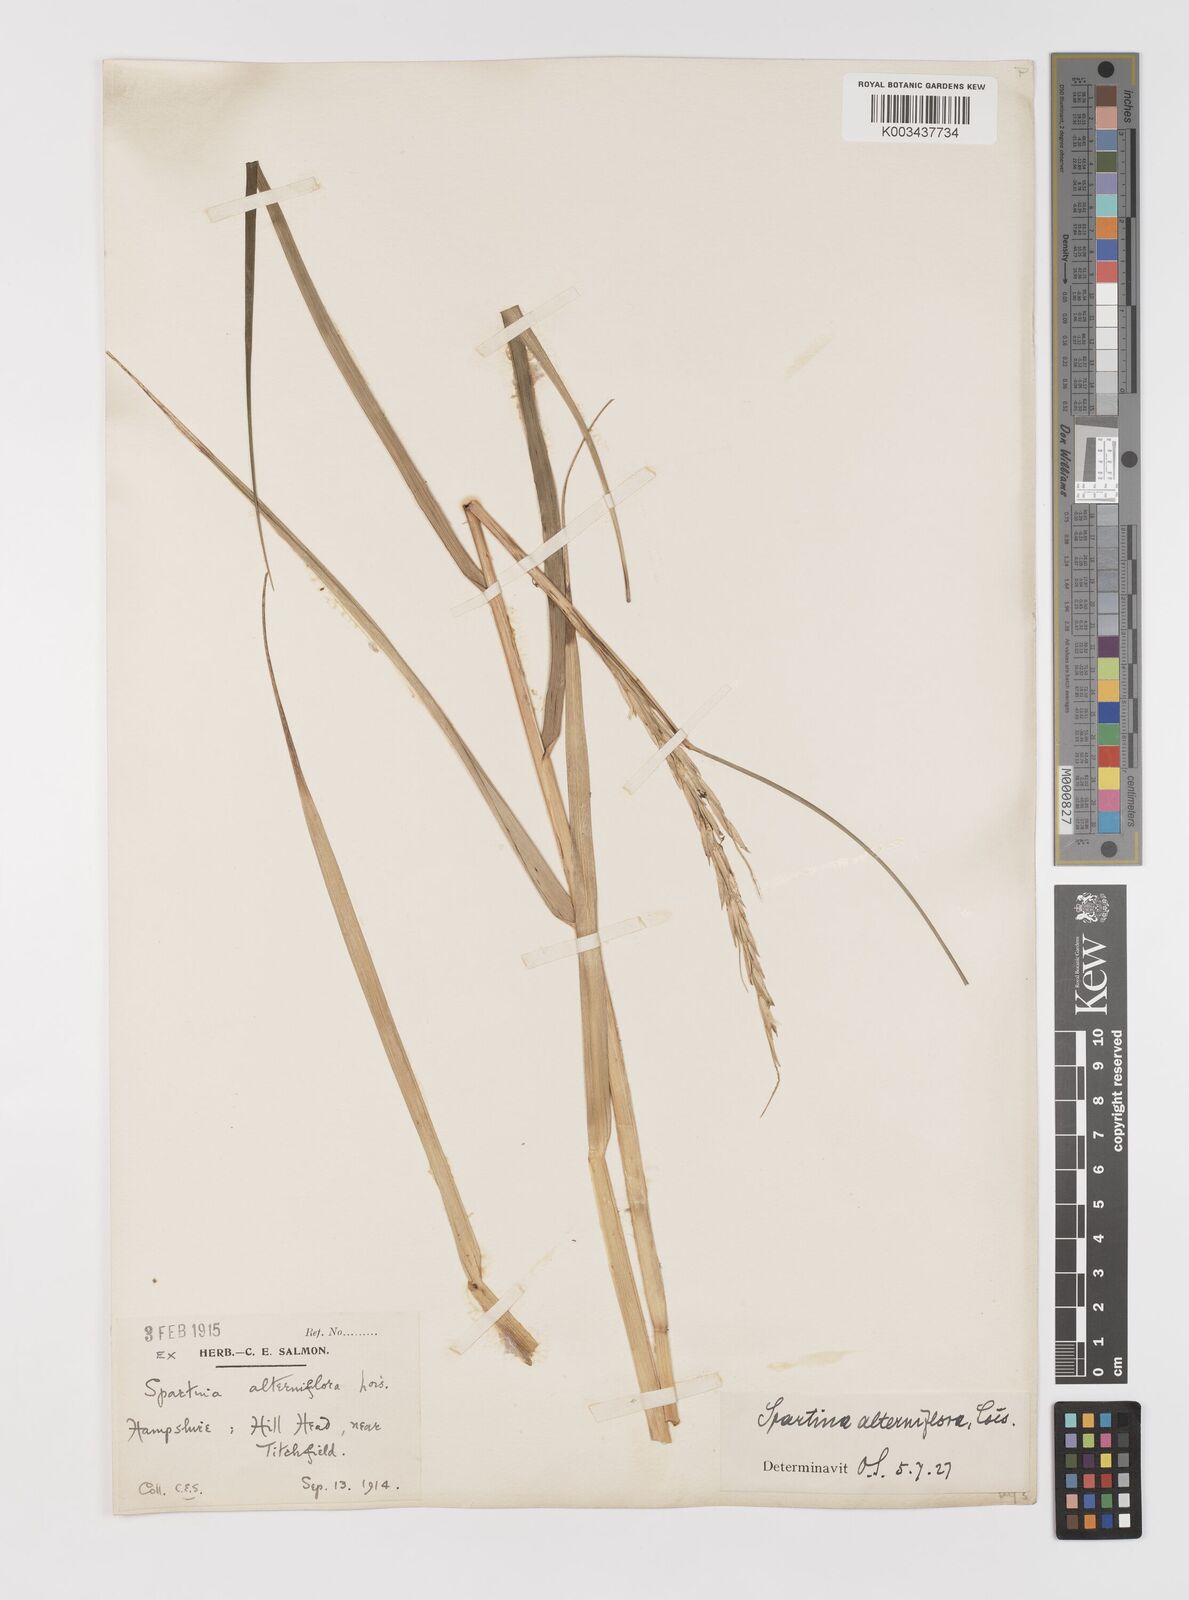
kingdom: Plantae
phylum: Tracheophyta
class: Liliopsida
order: Poales
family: Poaceae
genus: Sporobolus
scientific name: Sporobolus alterniflorus
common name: Atlantic cordgrass
